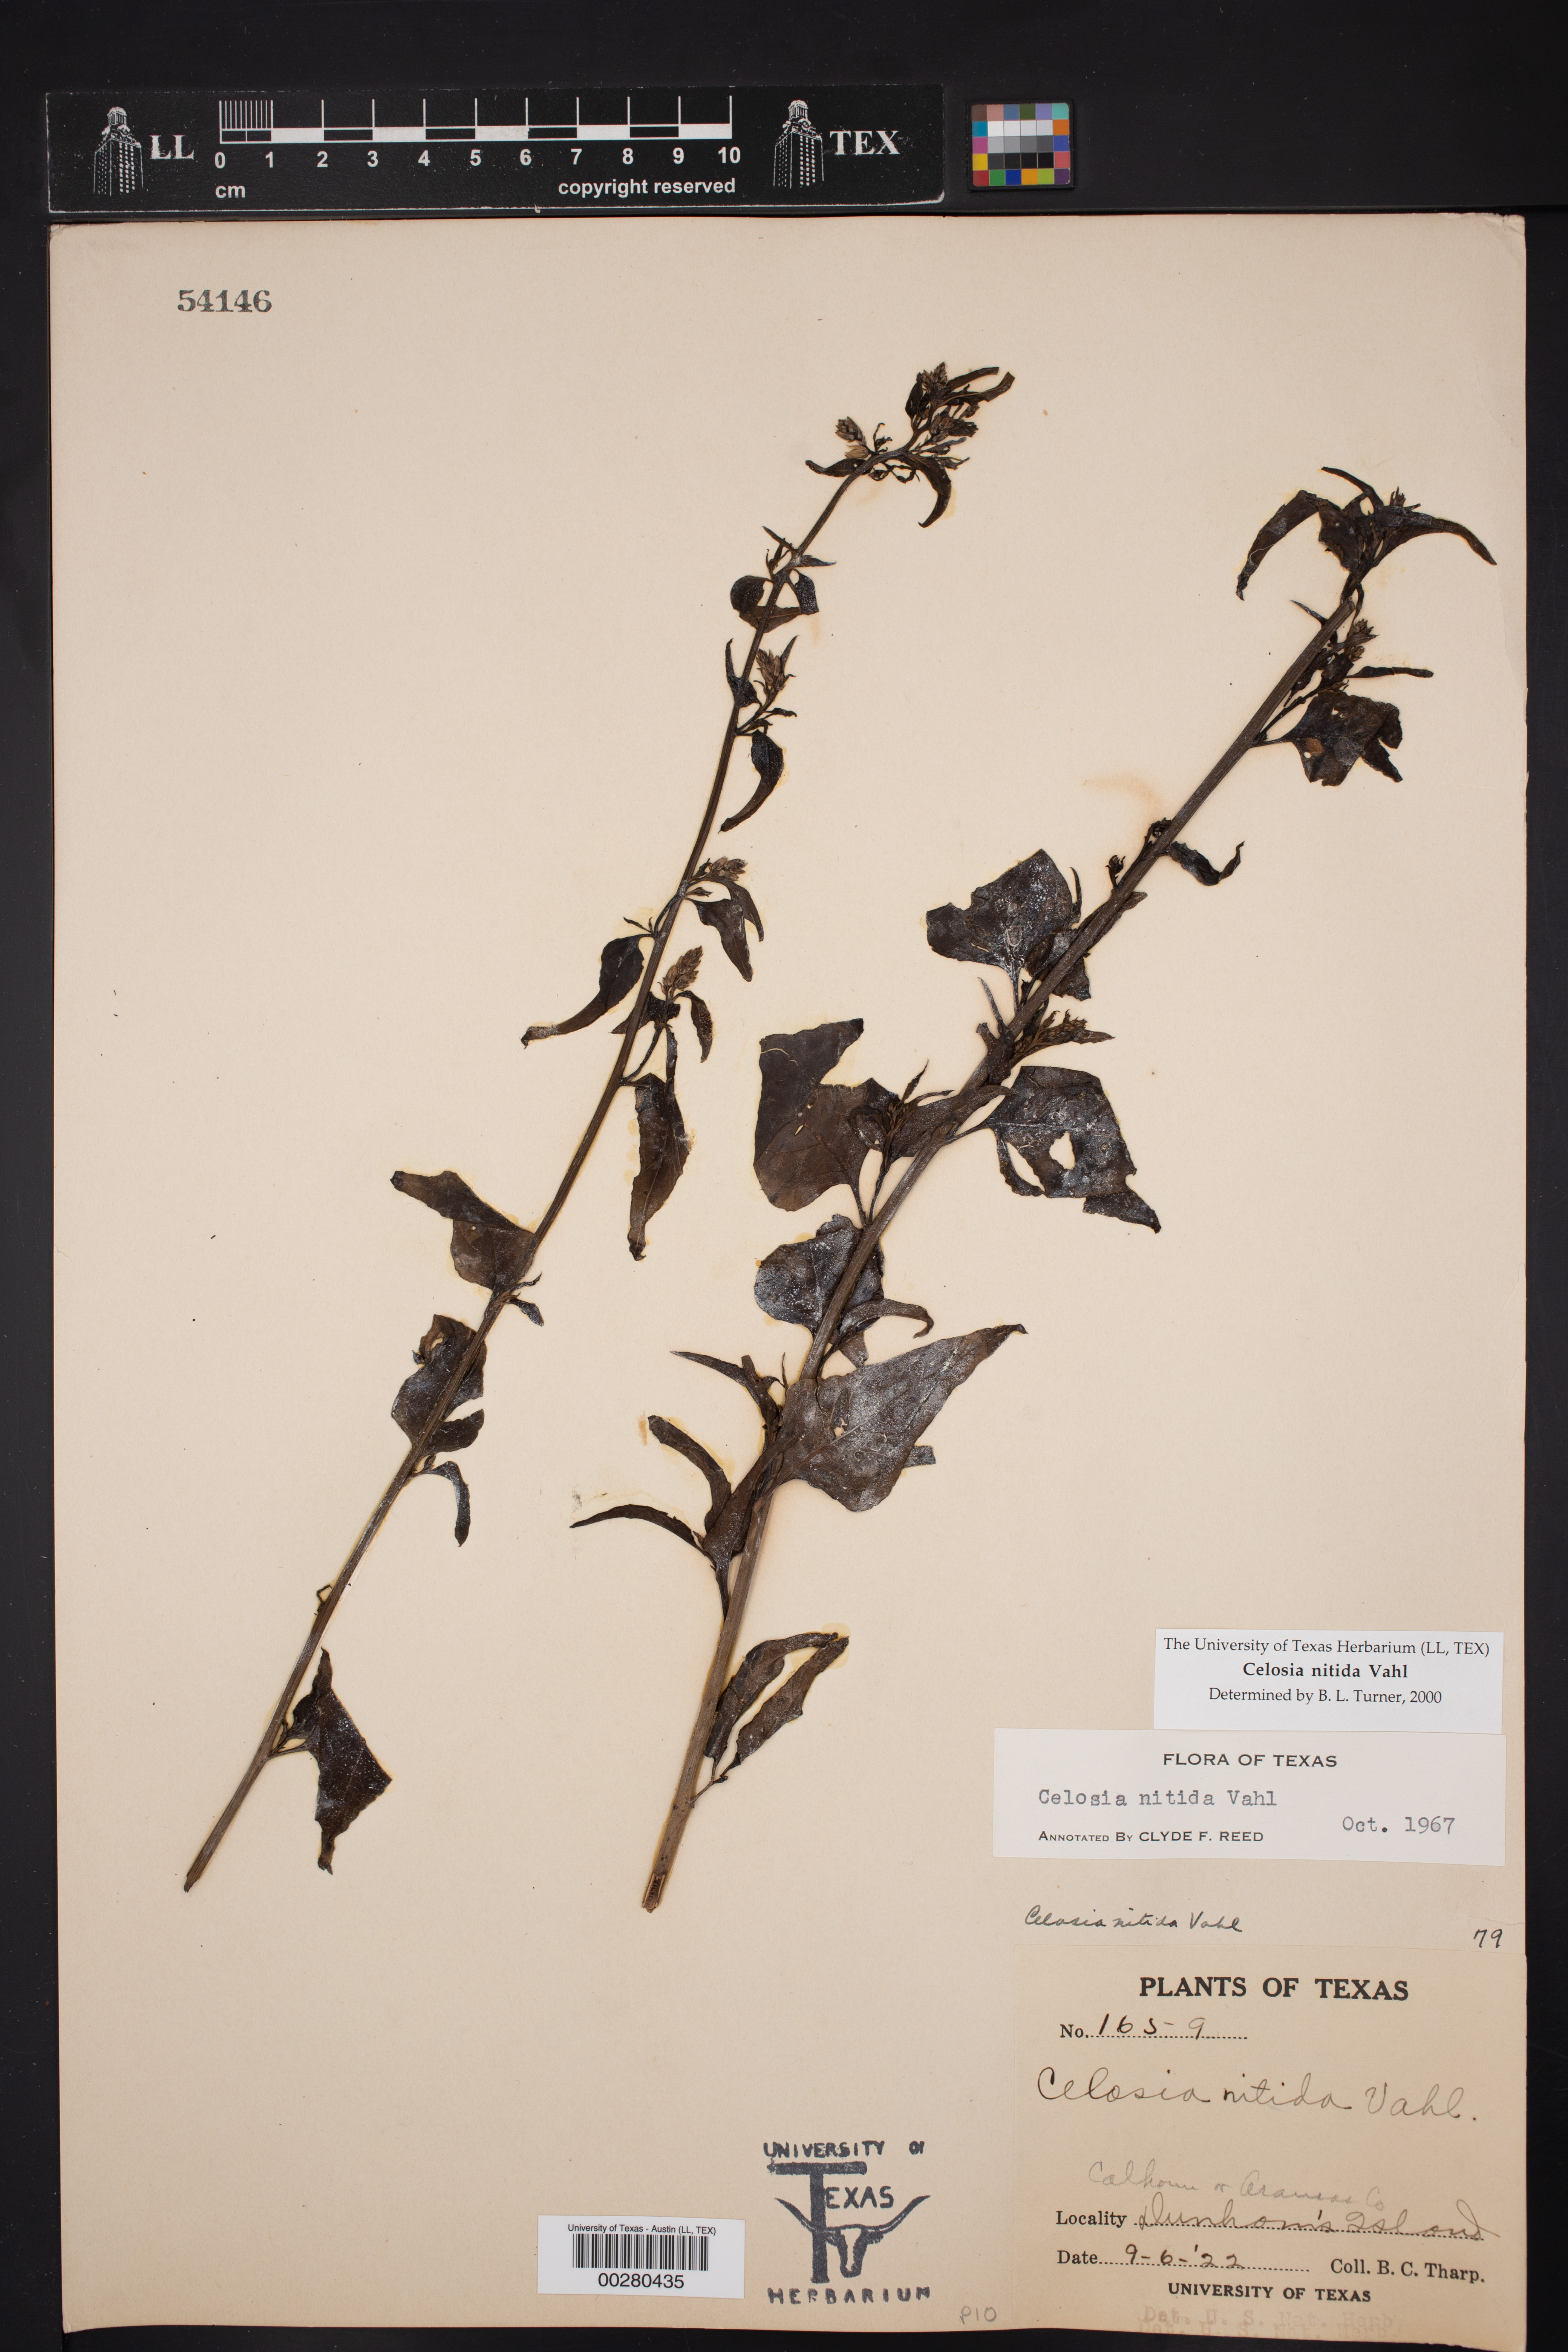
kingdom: Plantae
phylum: Tracheophyta
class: Magnoliopsida
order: Caryophyllales
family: Amaranthaceae
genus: Celosia
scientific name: Celosia nitida
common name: West indian cock's comb
